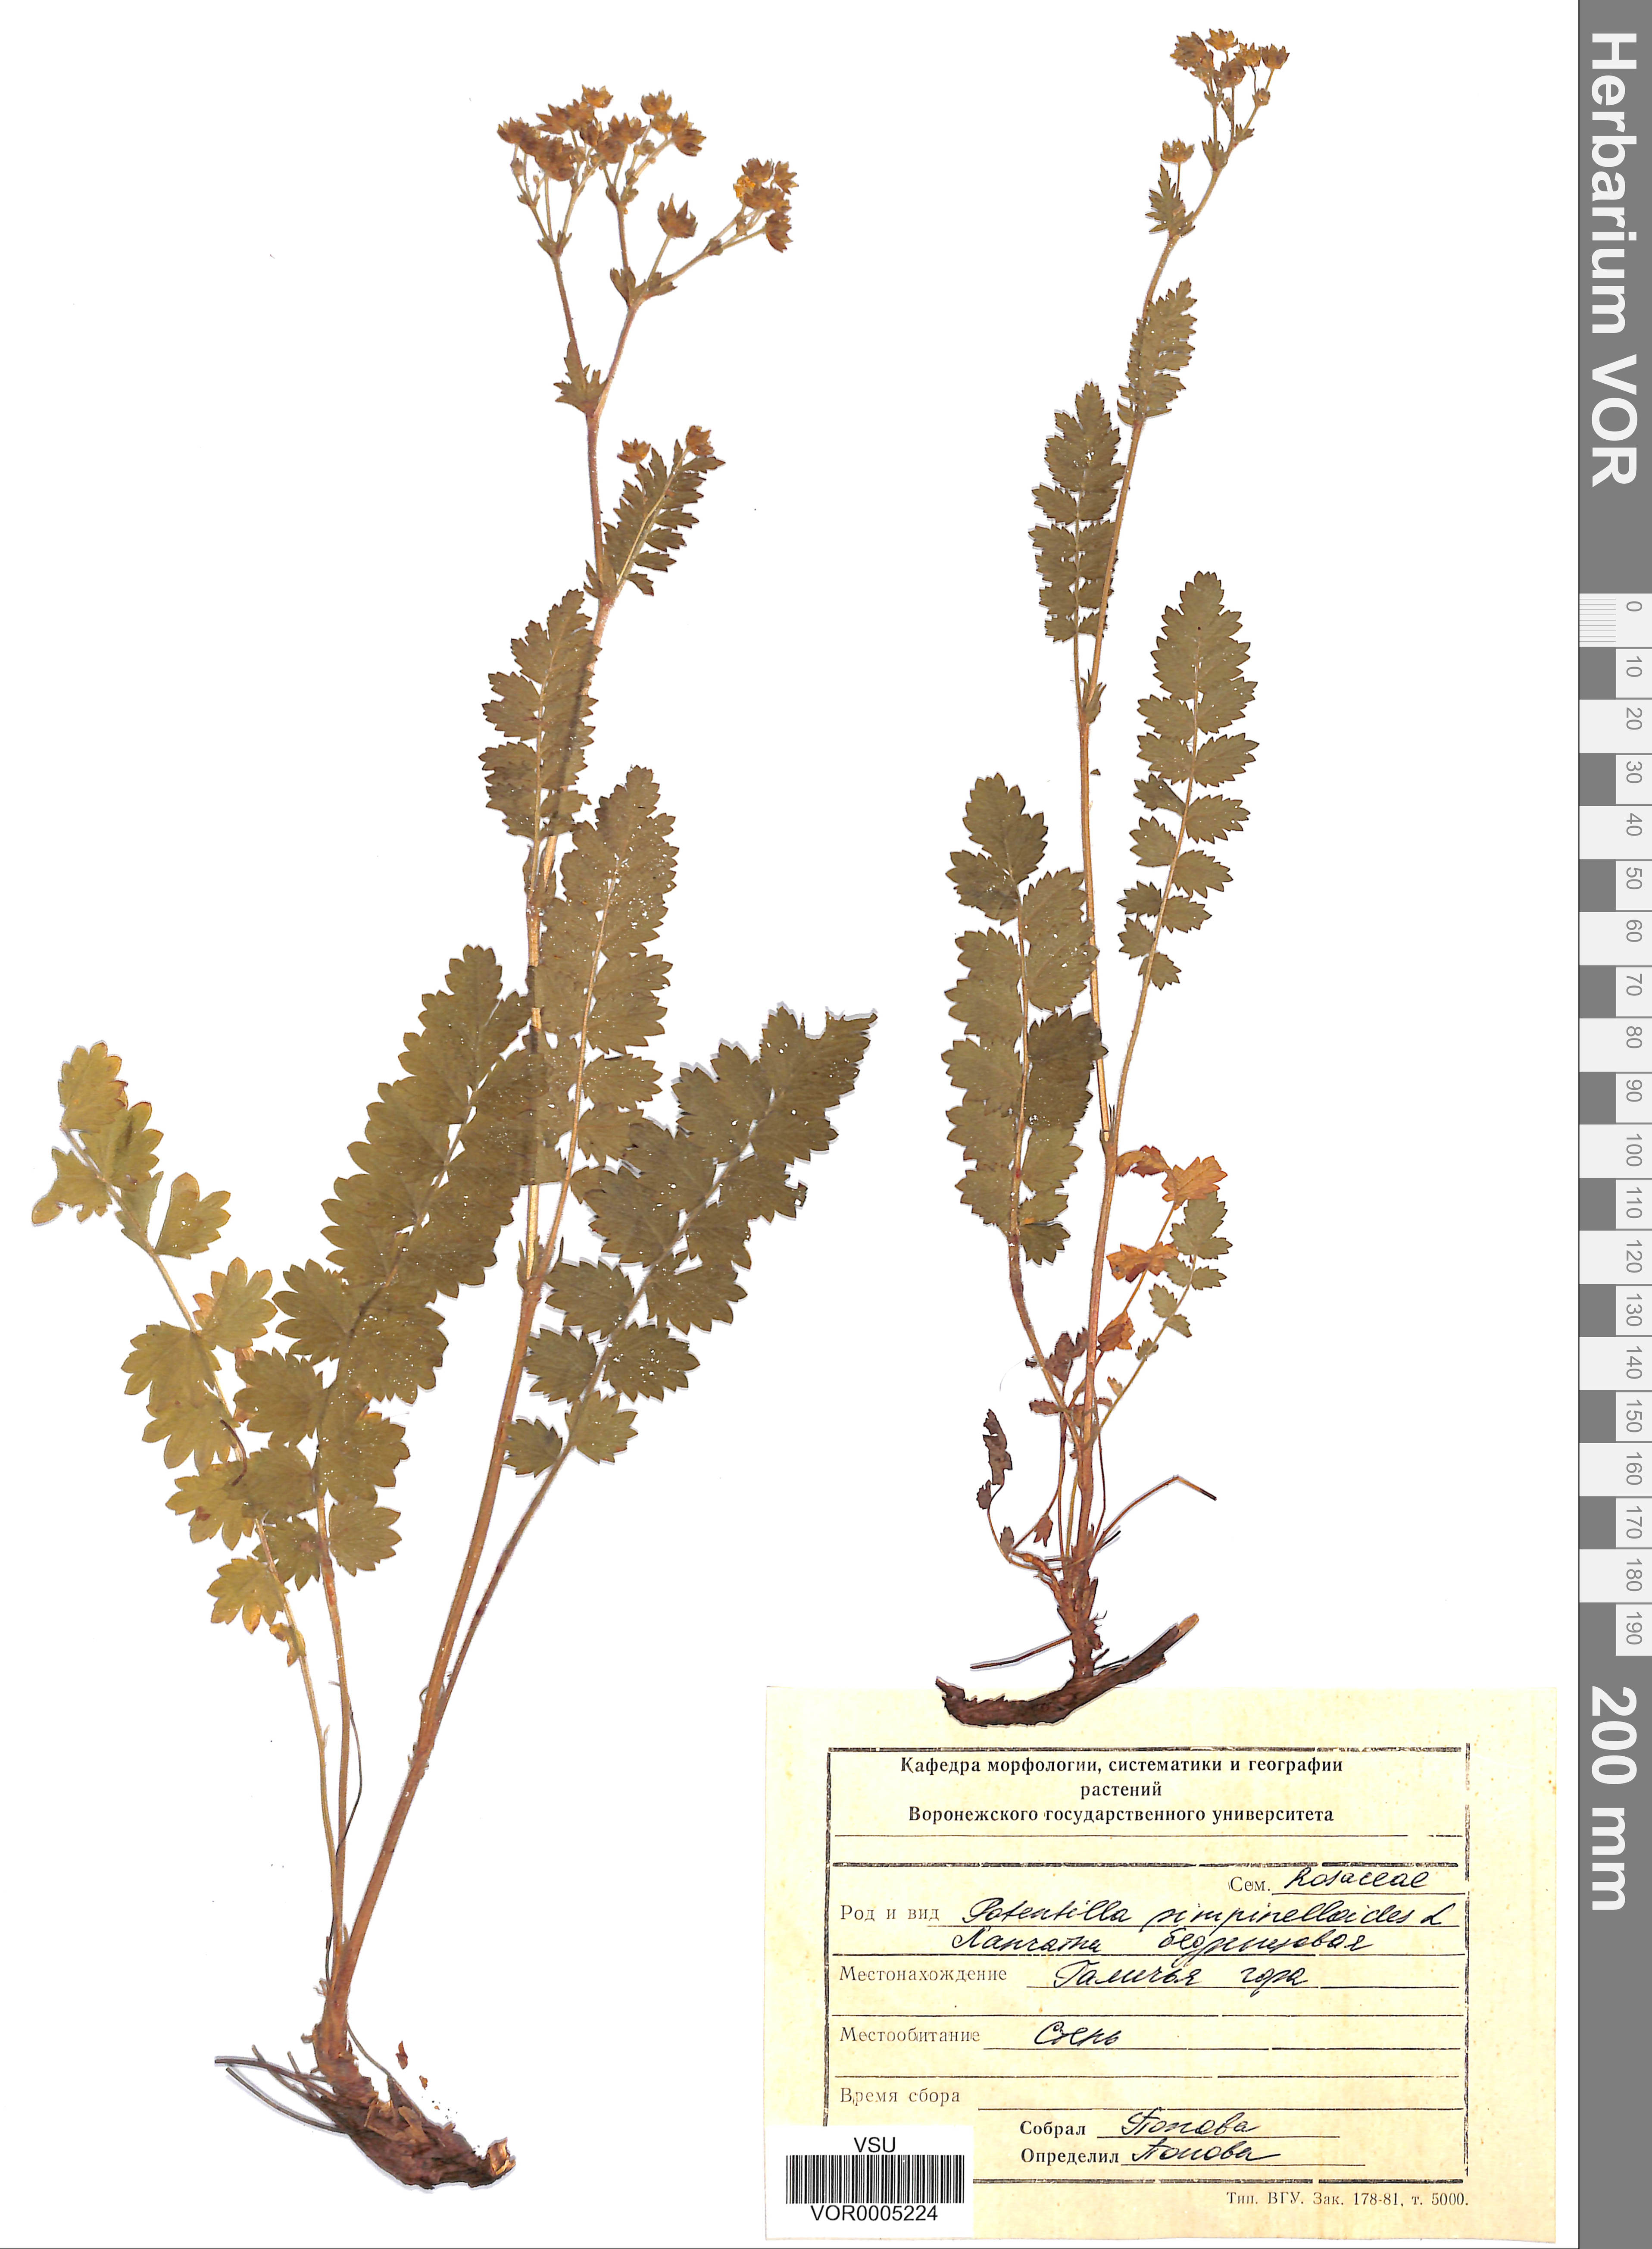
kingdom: Plantae
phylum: Tracheophyta
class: Magnoliopsida
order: Rosales
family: Rosaceae
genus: Potentilla
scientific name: Potentilla pimpinelloides
